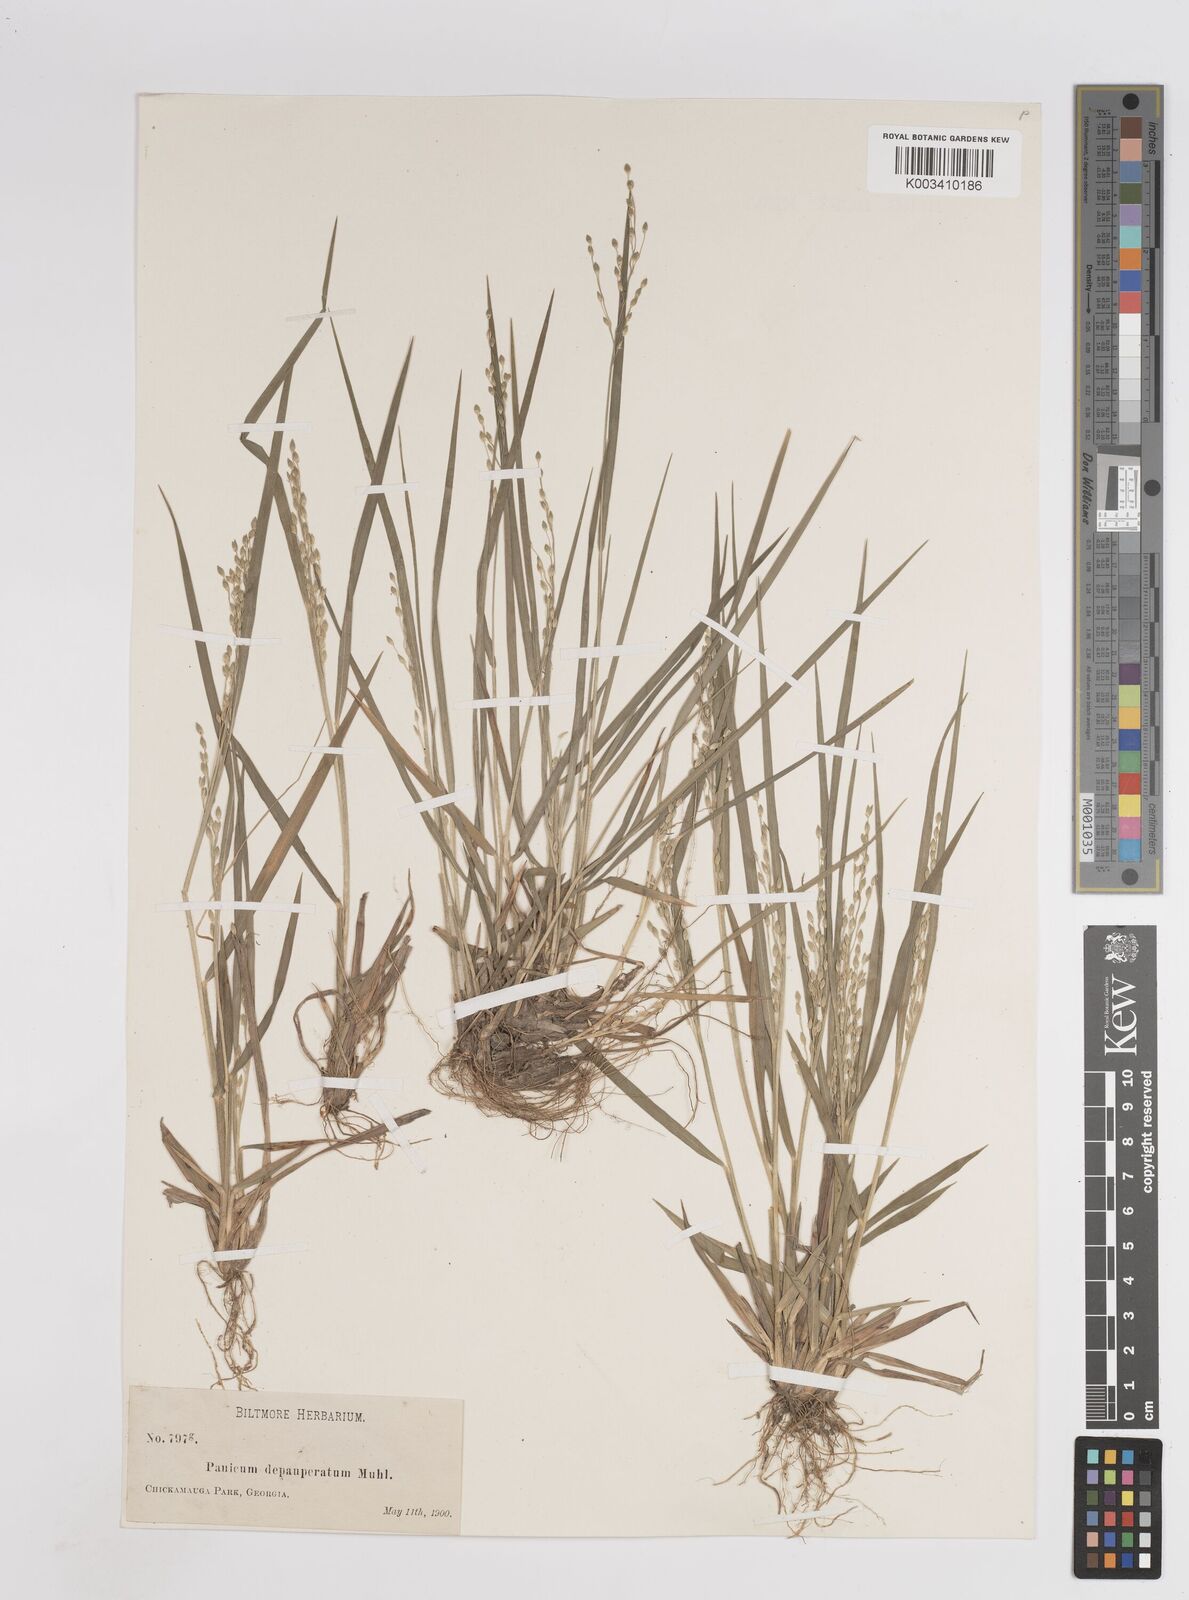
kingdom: Plantae
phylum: Tracheophyta
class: Liliopsida
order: Poales
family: Poaceae
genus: Dichanthelium
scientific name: Dichanthelium depauperatum
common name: Depauperate panicgrass
